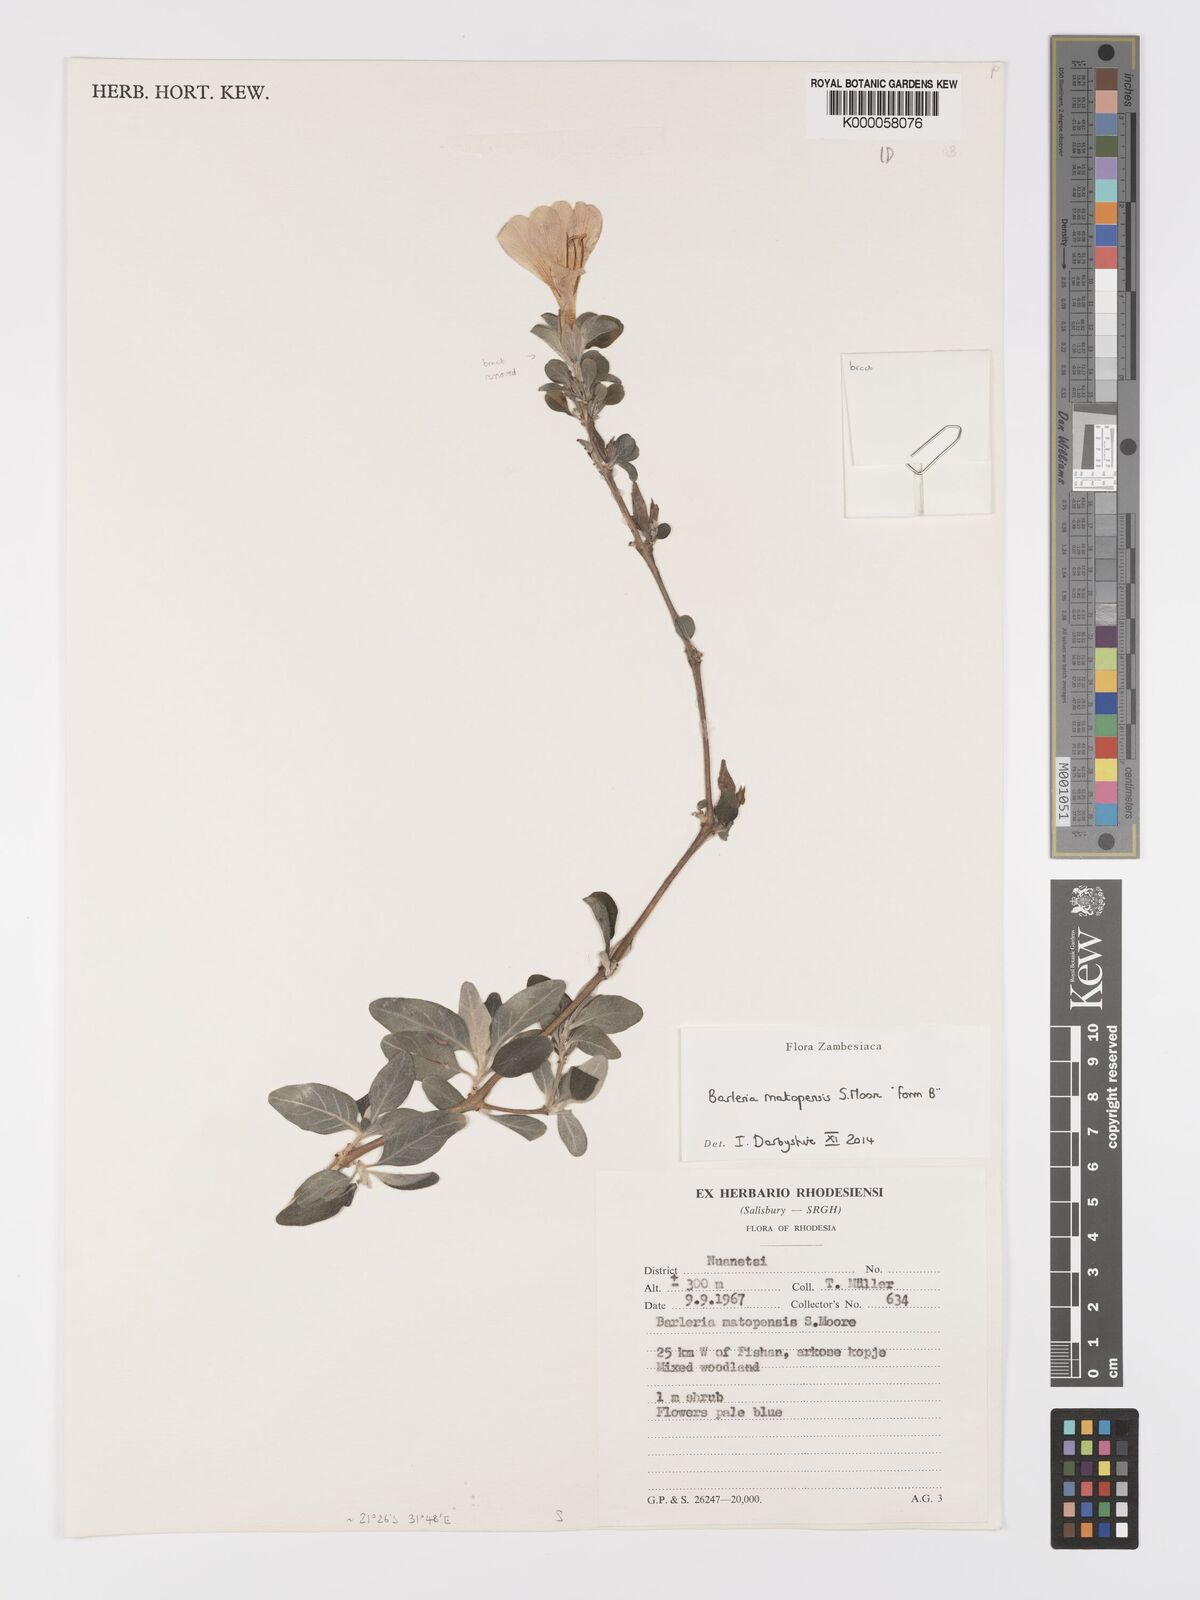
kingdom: Plantae
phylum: Tracheophyta
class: Magnoliopsida
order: Lamiales
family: Acanthaceae
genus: Barleria
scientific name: Barleria matopensis
